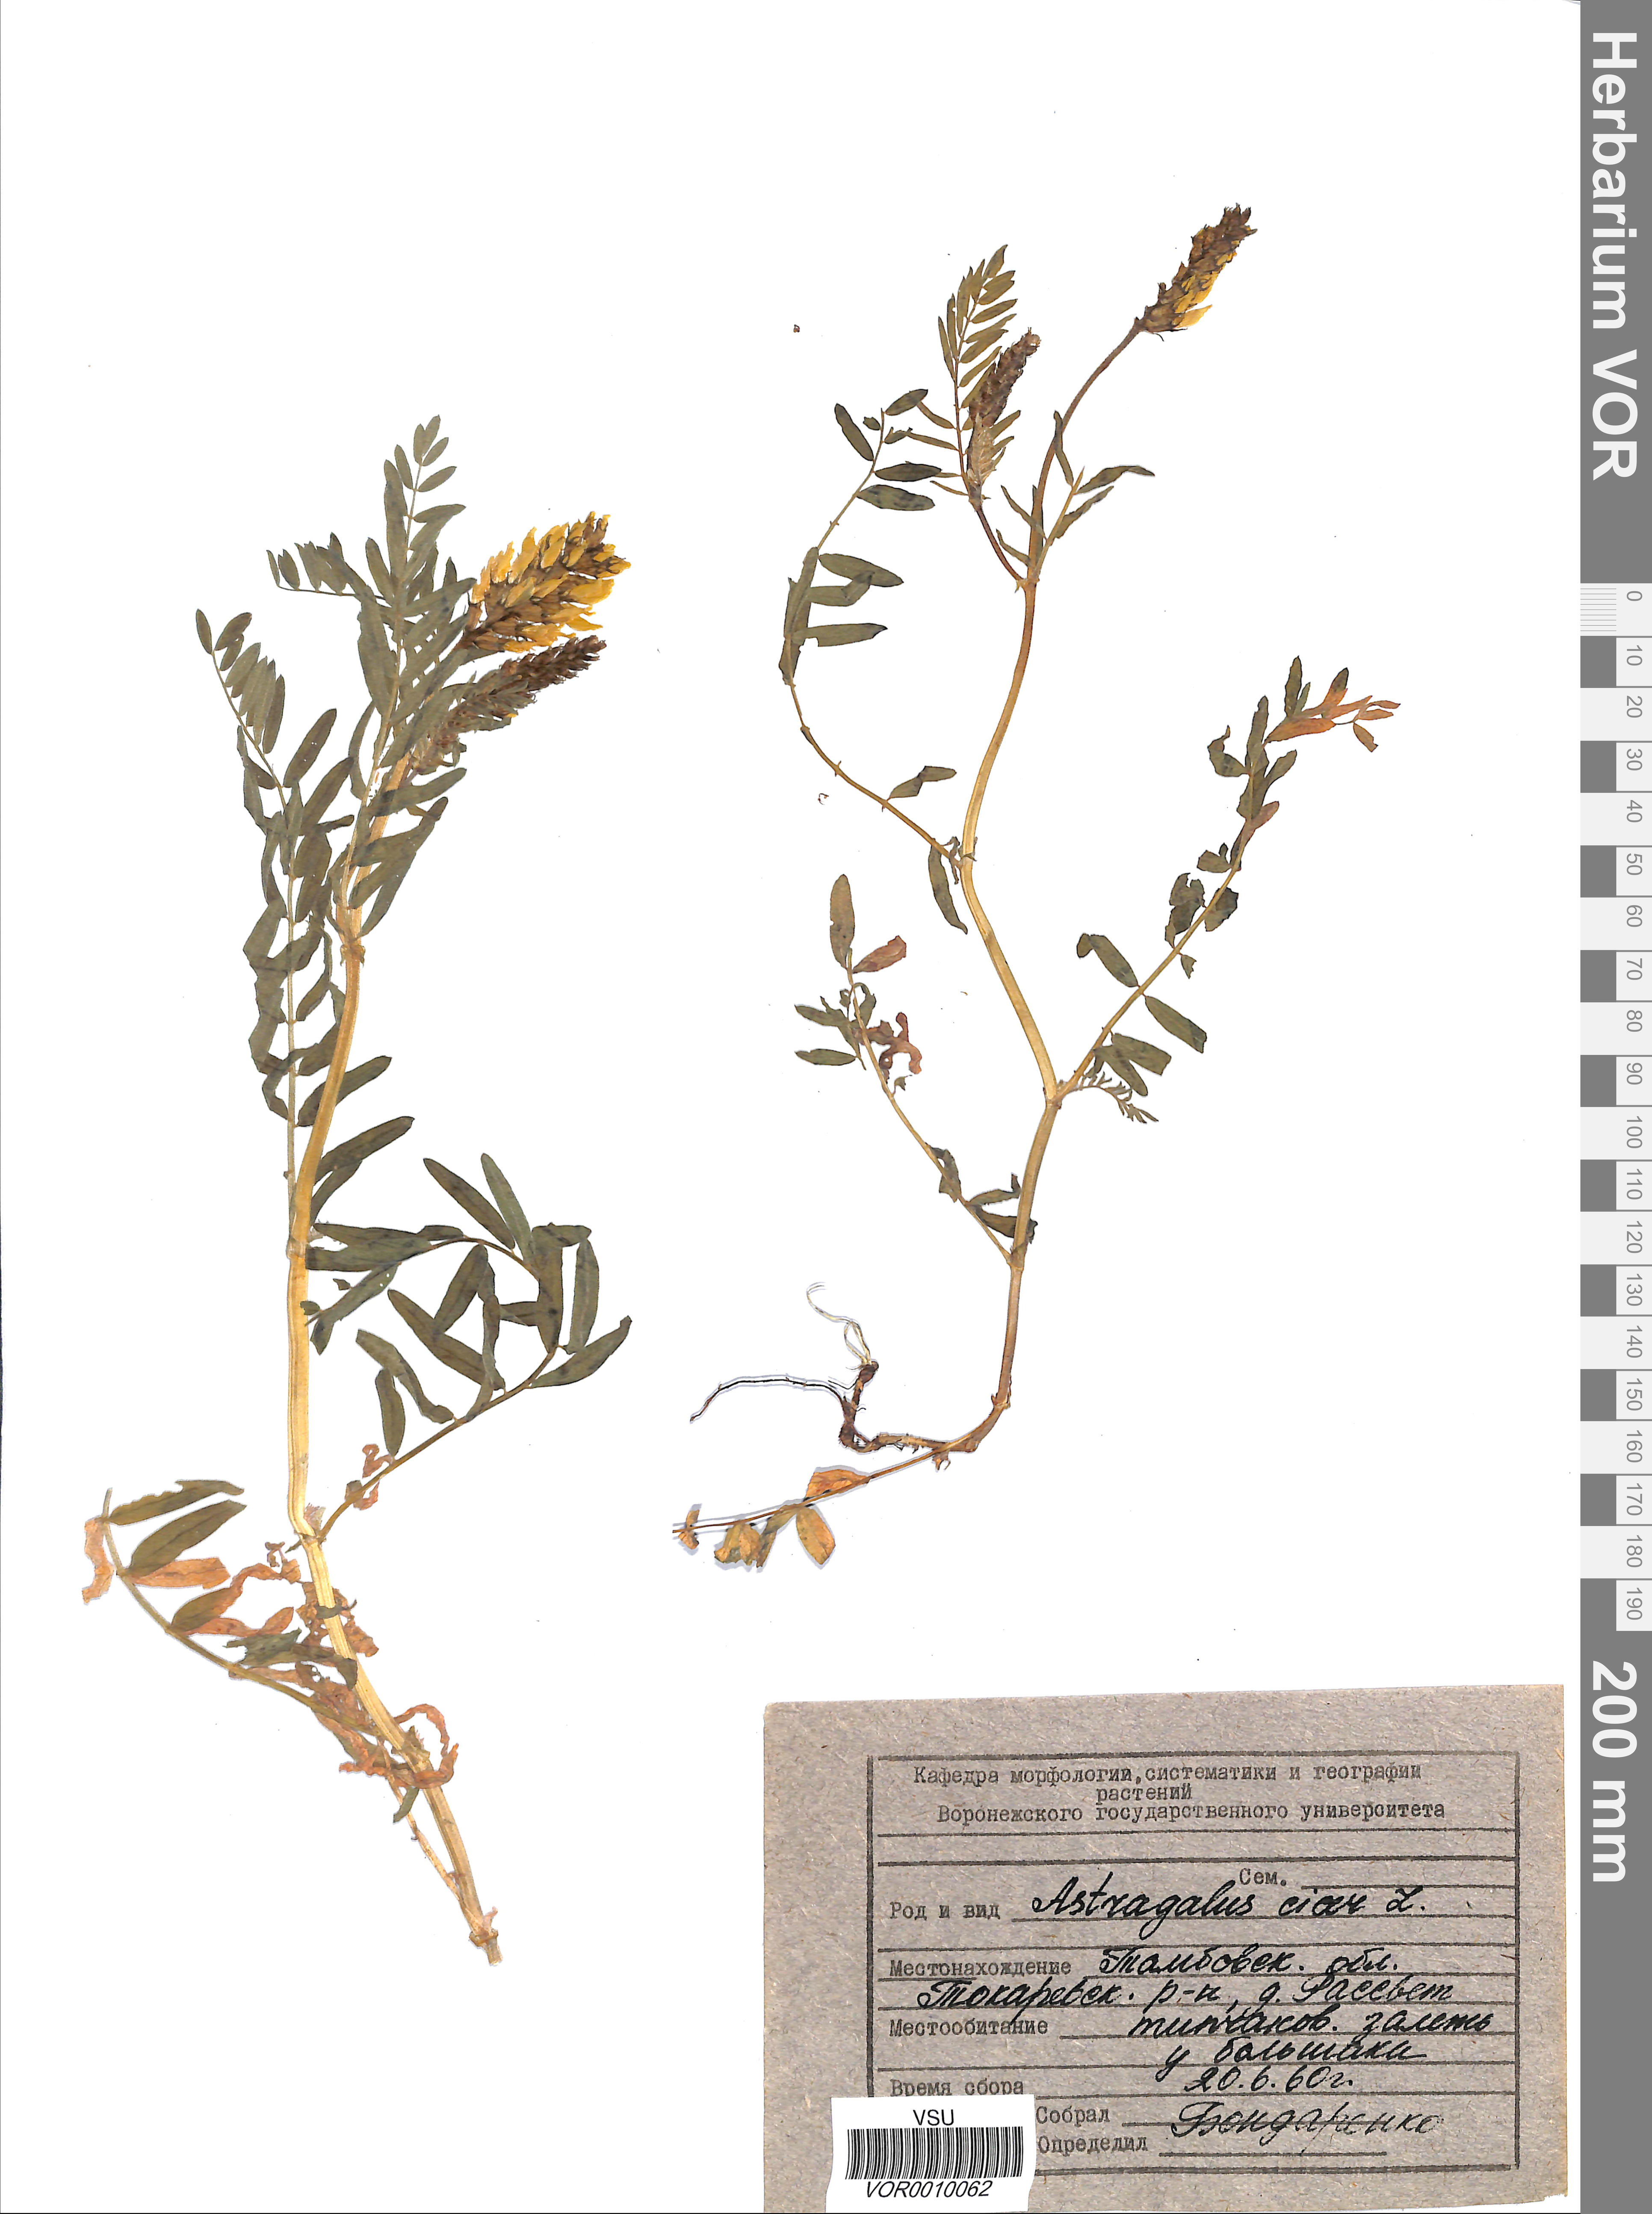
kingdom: Plantae
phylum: Tracheophyta
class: Magnoliopsida
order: Fabales
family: Fabaceae
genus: Astragalus
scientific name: Astragalus cicer
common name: Chick-pea milk-vetch
